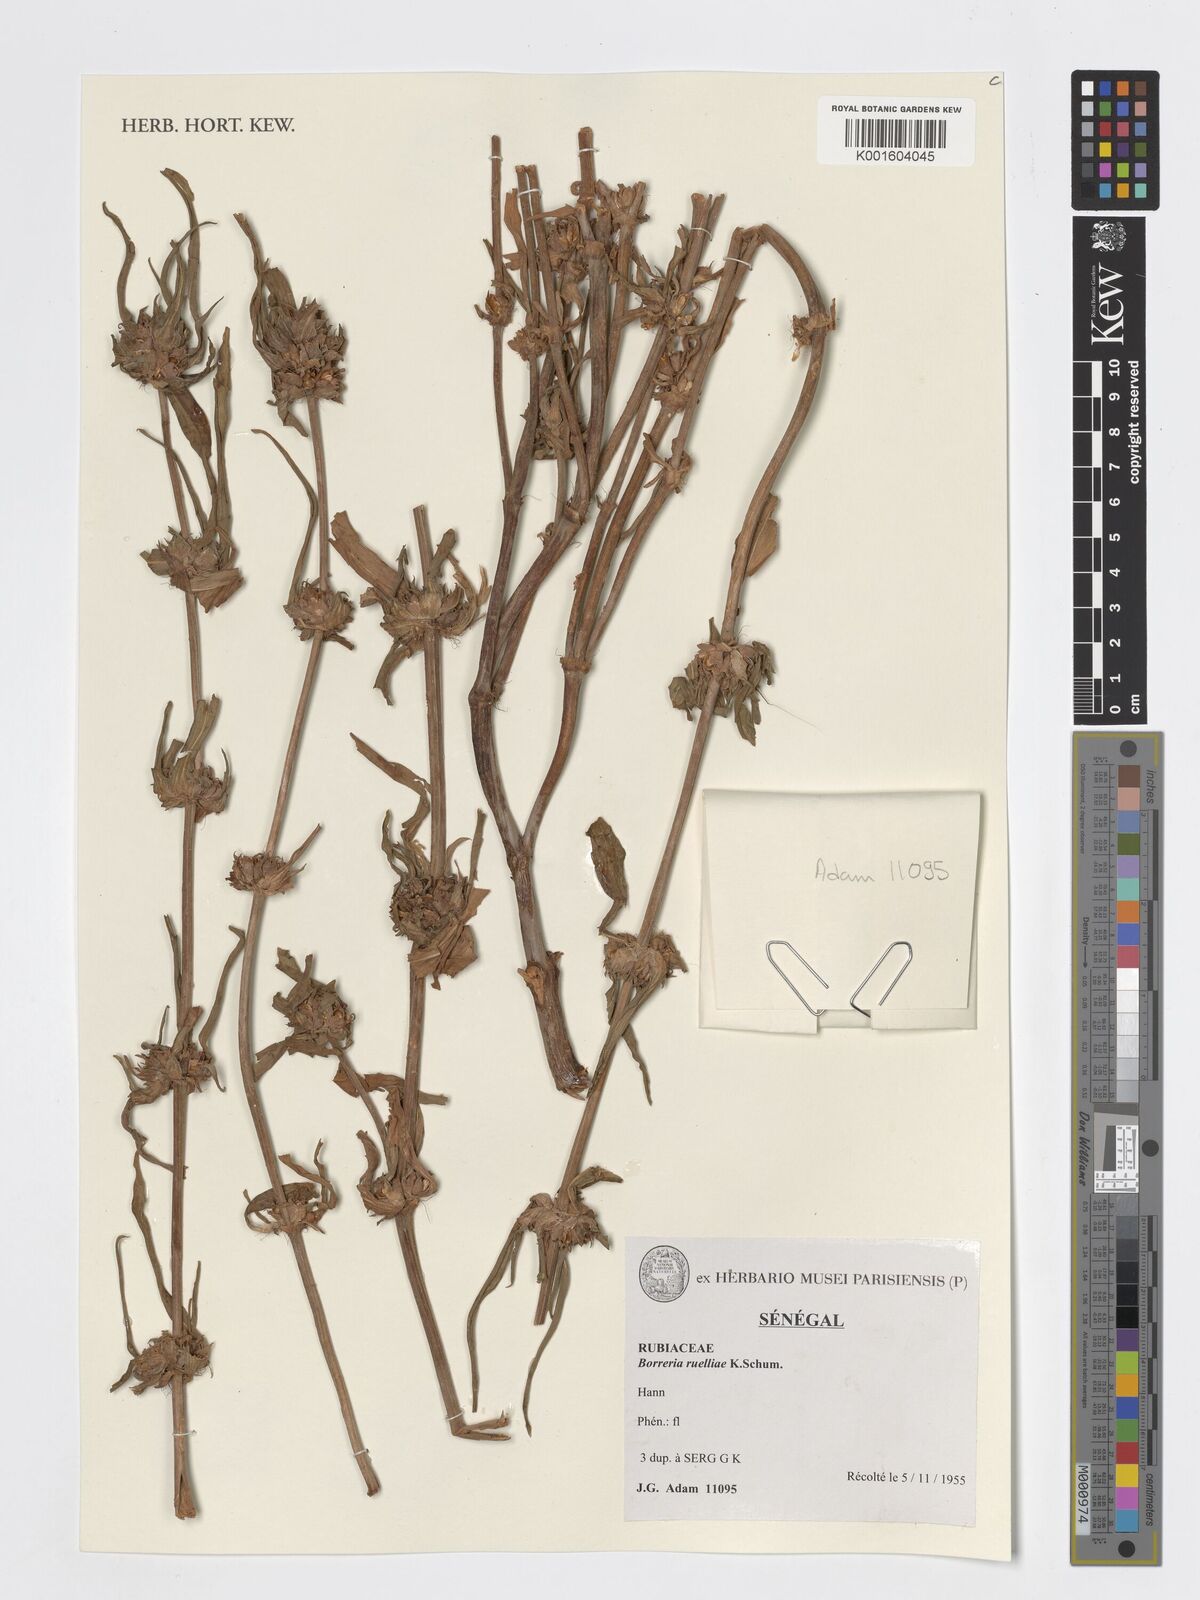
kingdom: Plantae
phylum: Tracheophyta
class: Magnoliopsida
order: Gentianales
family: Rubiaceae
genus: Spermacoce
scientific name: Spermacoce ruelliae
